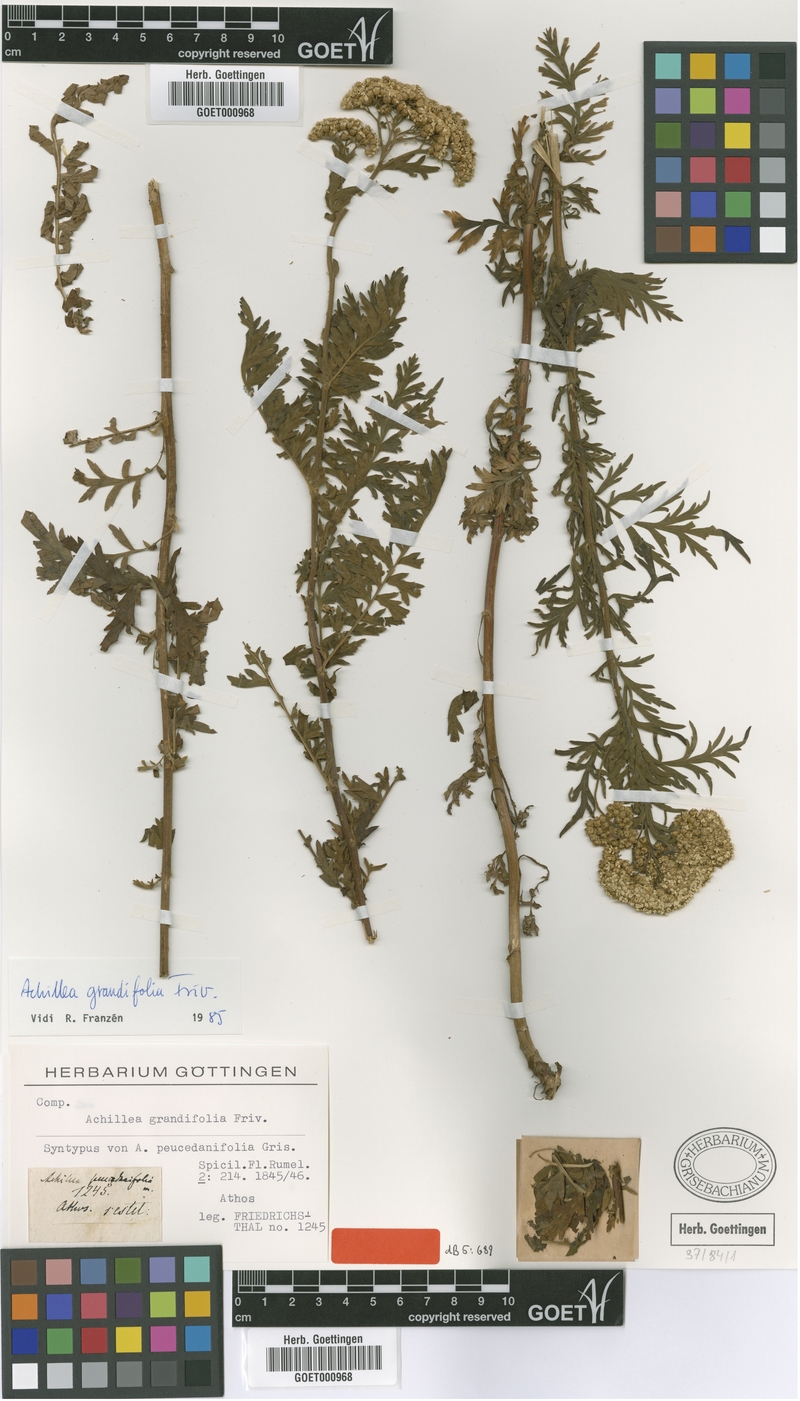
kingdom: Plantae
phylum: Tracheophyta
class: Magnoliopsida
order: Asterales
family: Asteraceae
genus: Achillea
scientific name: Achillea grandifolia
